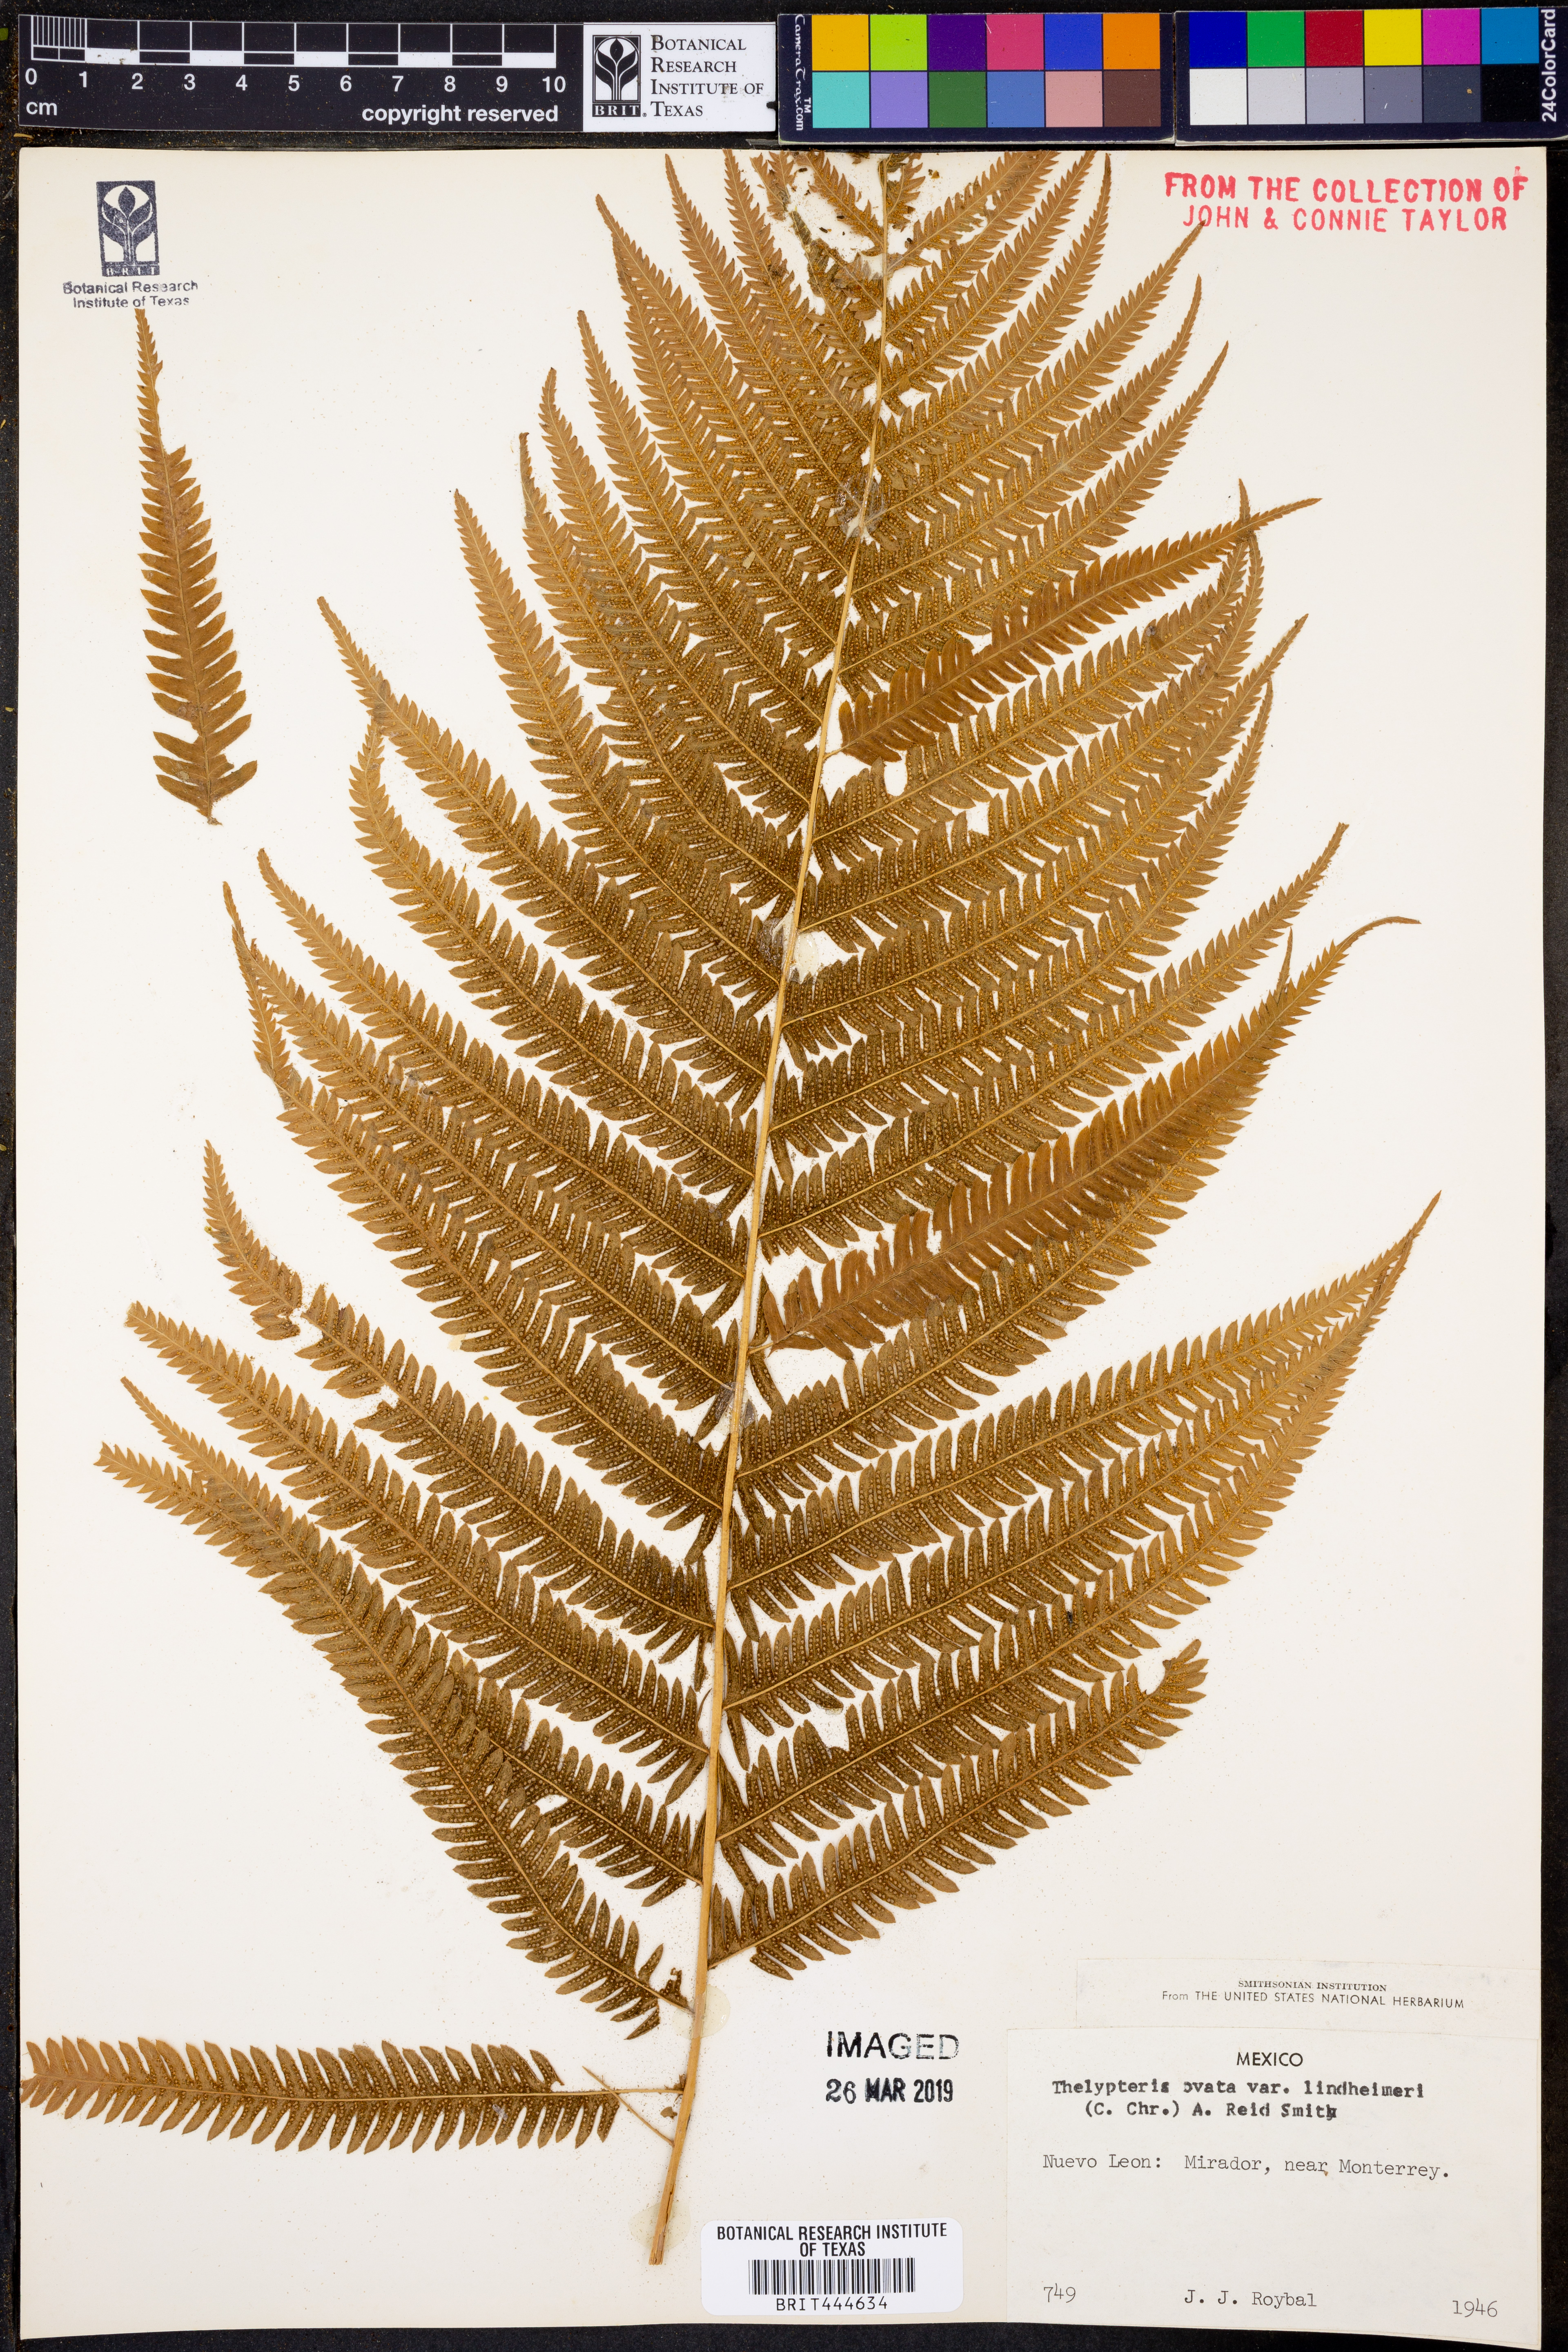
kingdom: Plantae
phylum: Tracheophyta
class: Polypodiopsida
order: Polypodiales
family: Thelypteridaceae
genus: Pelazoneuron
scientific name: Pelazoneuron ovatum
